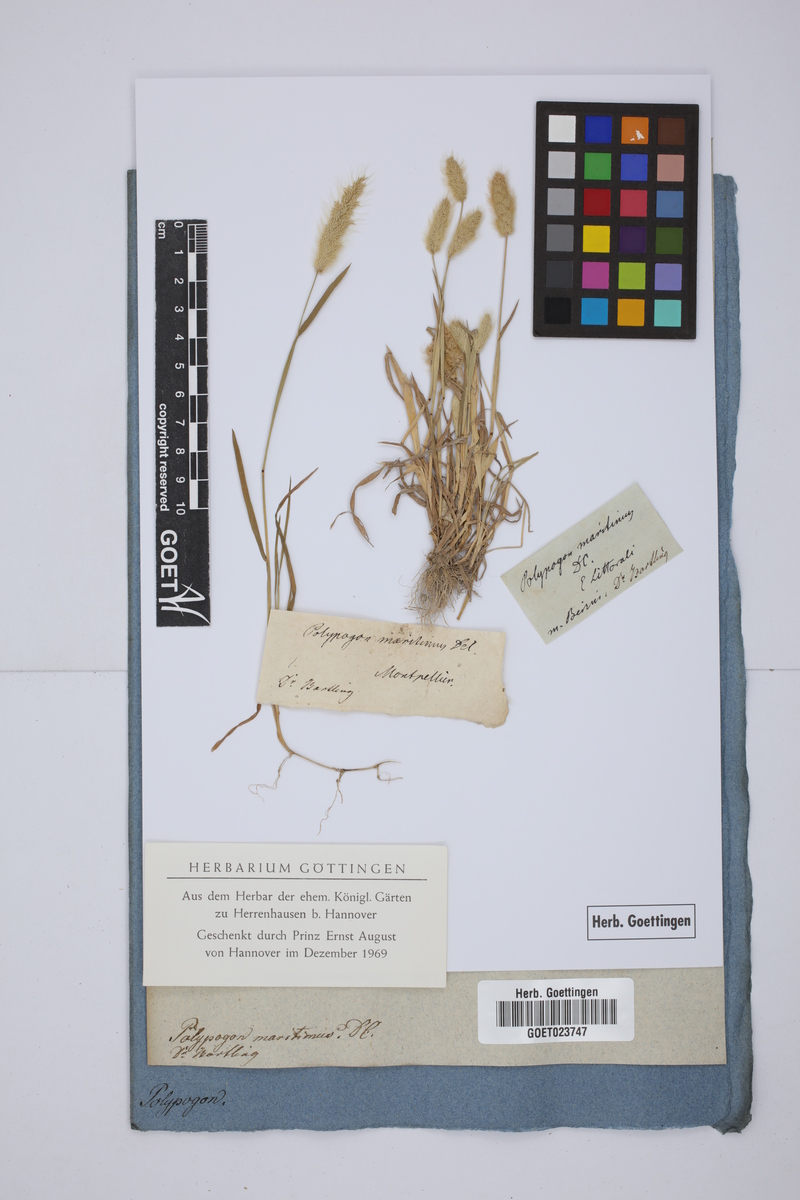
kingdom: Plantae
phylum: Tracheophyta
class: Liliopsida
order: Poales
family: Poaceae
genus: Polypogon
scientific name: Polypogon maritimus
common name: Mediterranean rabbitsfoot grass
